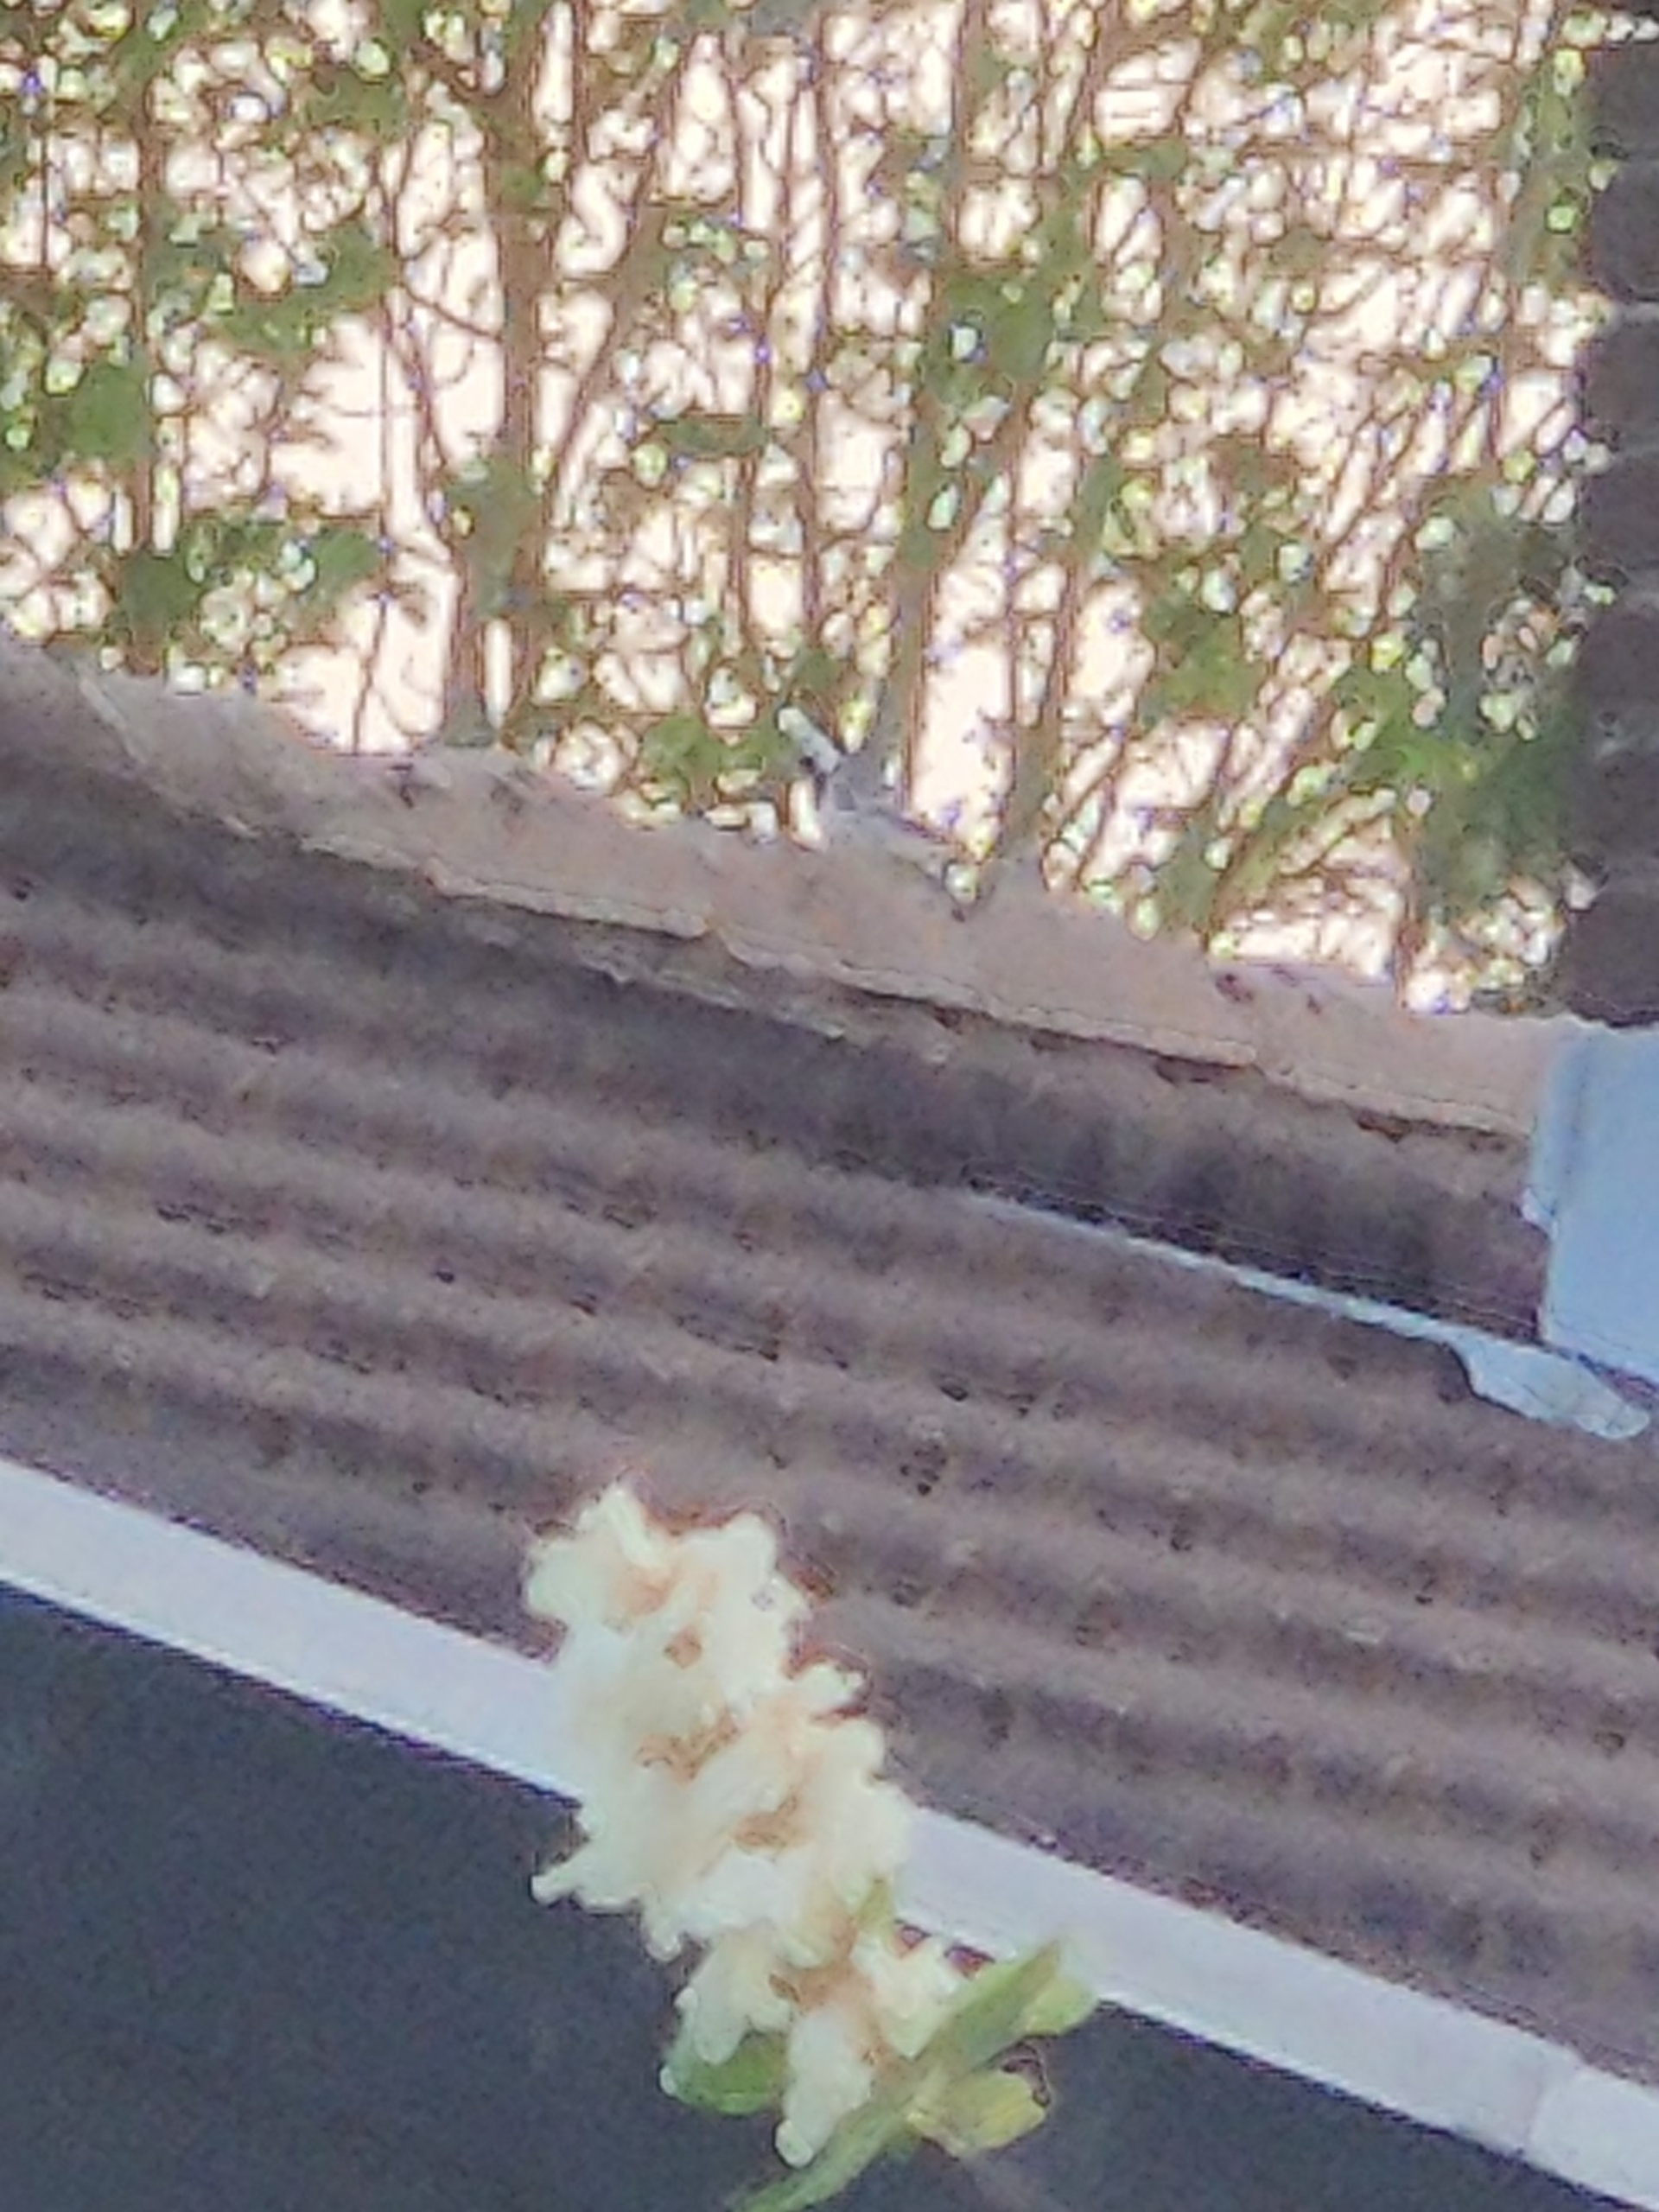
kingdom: Animalia
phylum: Chordata
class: Aves
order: Passeriformes
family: Motacillidae
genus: Motacilla
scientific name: Motacilla alba
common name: Hvid vipstjert
